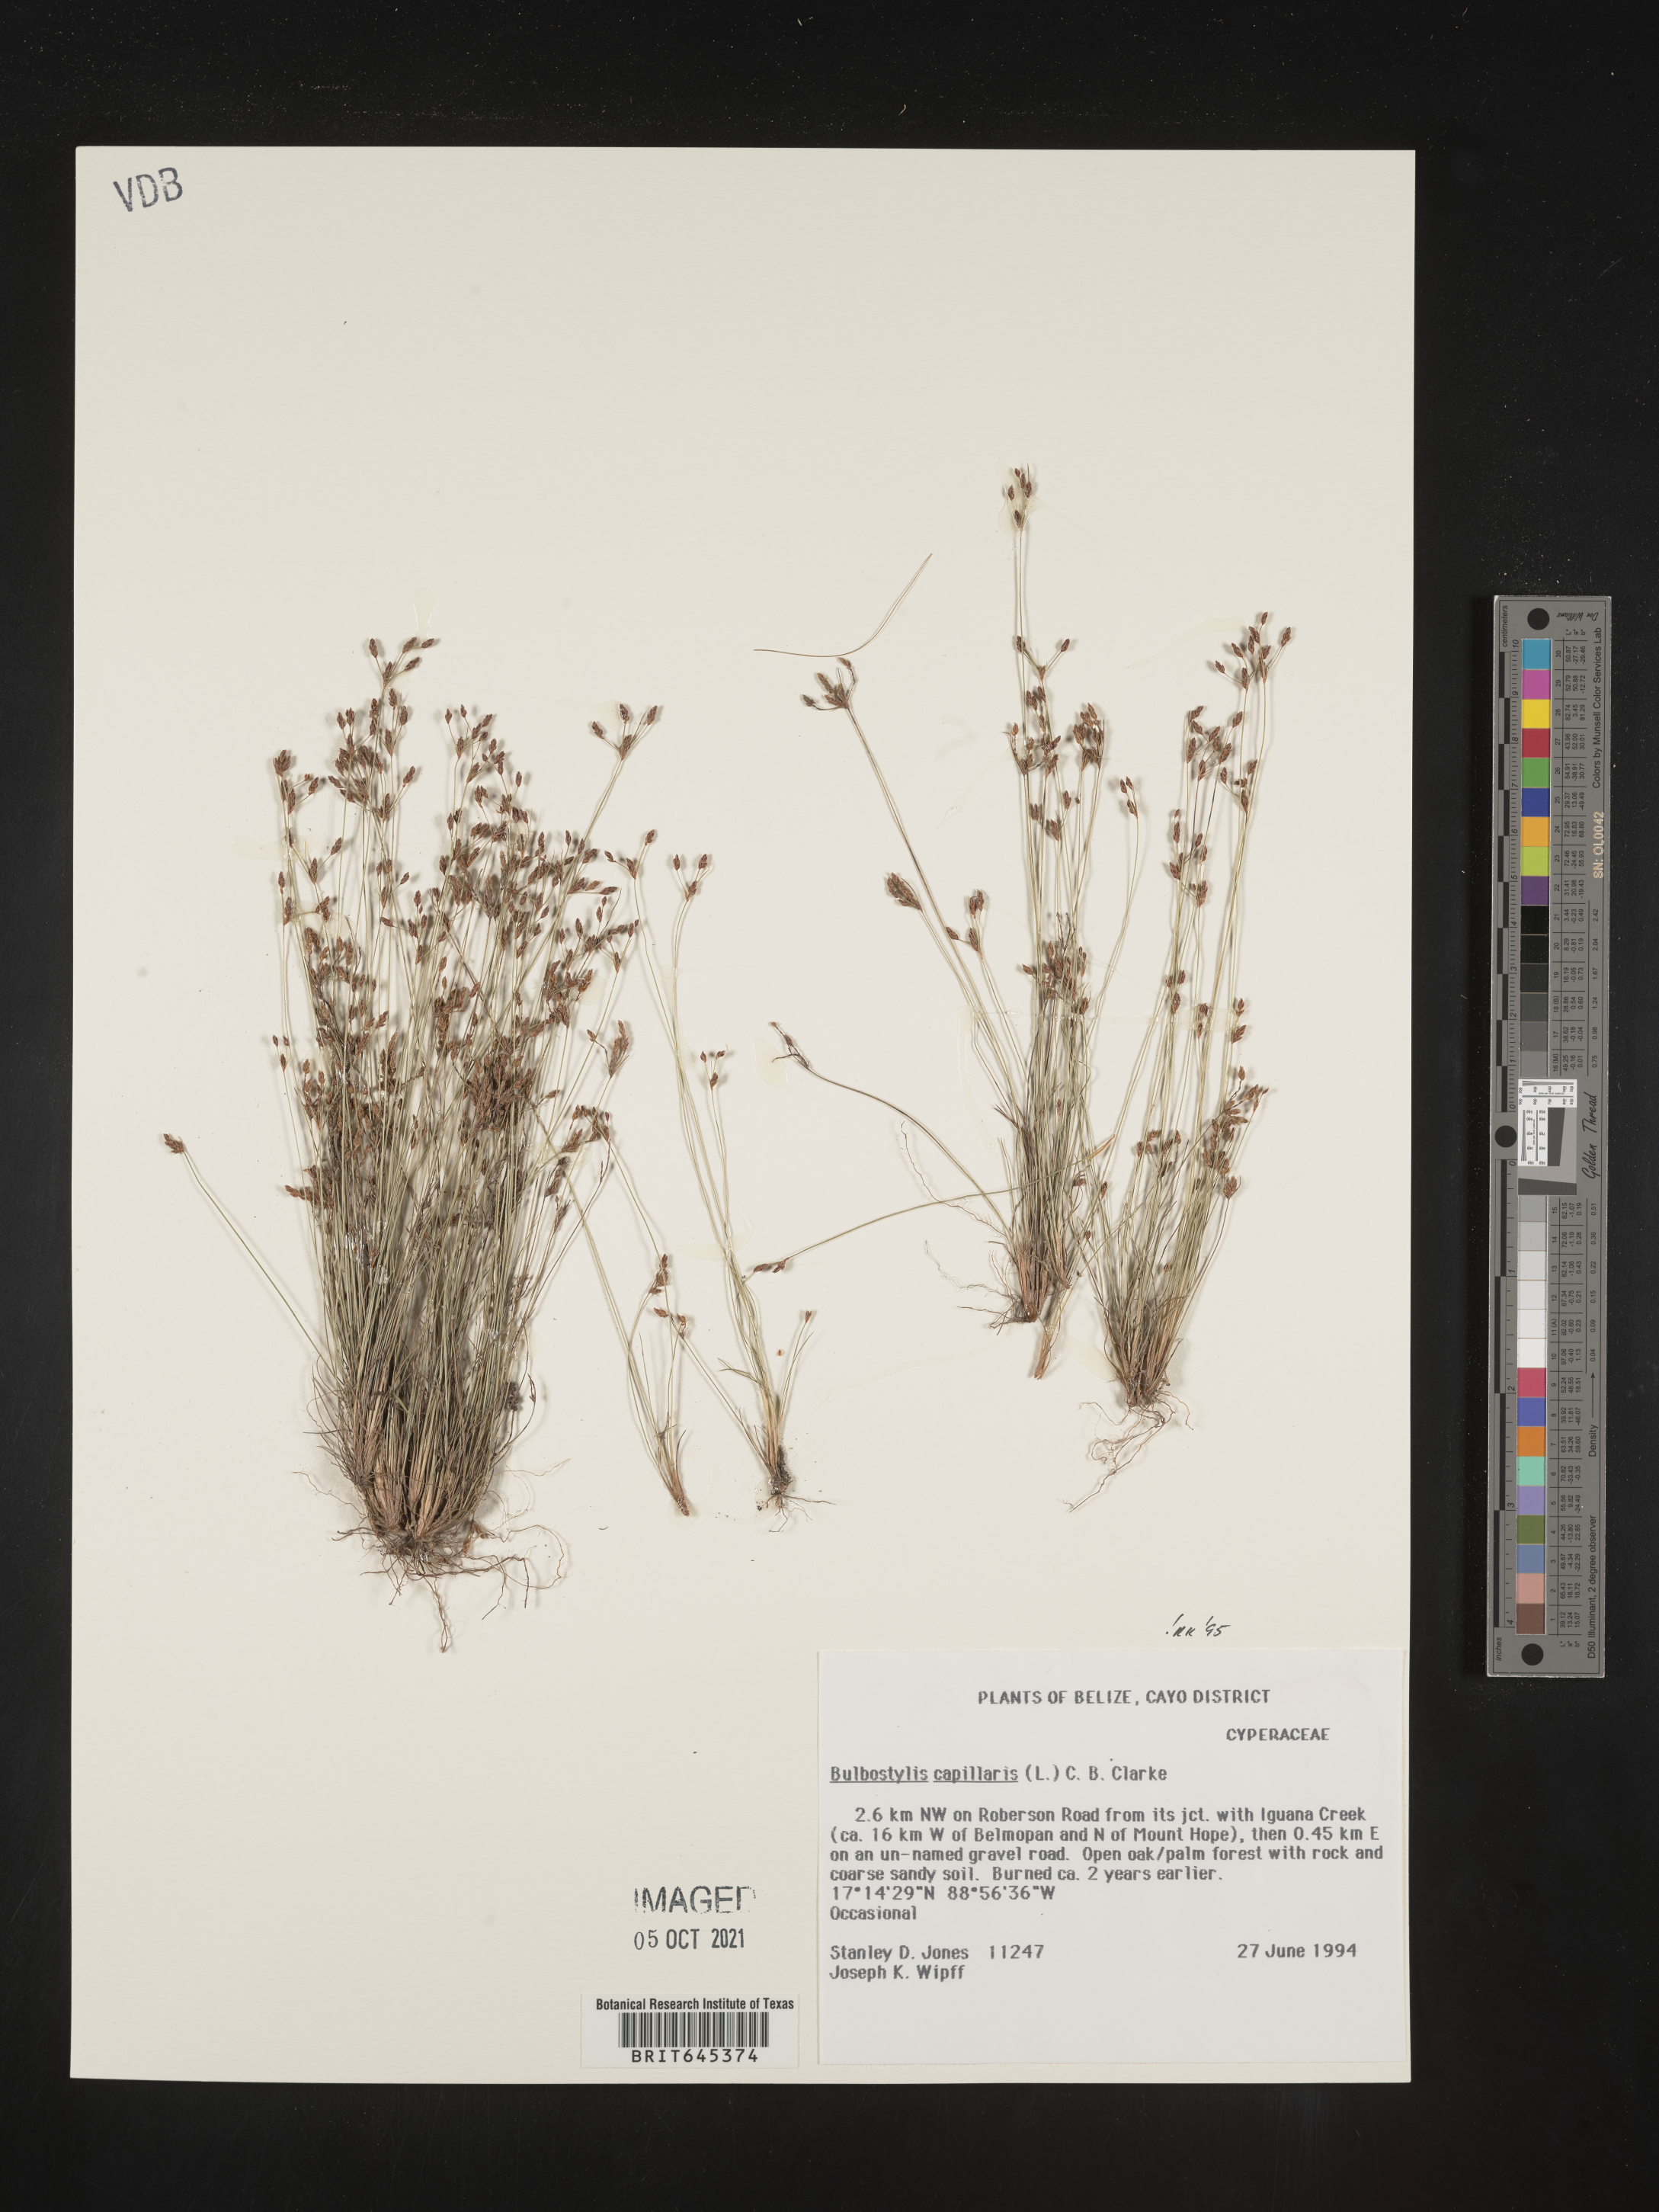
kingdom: Plantae
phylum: Tracheophyta
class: Liliopsida
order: Poales
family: Cyperaceae
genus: Bulbostylis
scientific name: Bulbostylis capillaris
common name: Densetuft hairsedge
